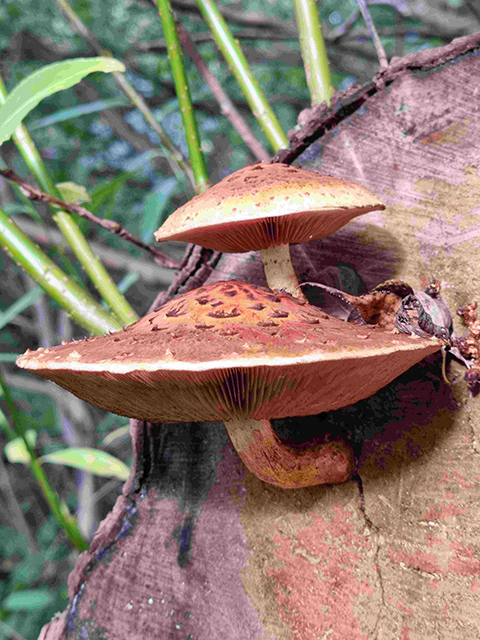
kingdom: Fungi
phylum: Basidiomycota
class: Agaricomycetes
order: Agaricales
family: Strophariaceae
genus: Pholiota
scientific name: Pholiota aurivella
